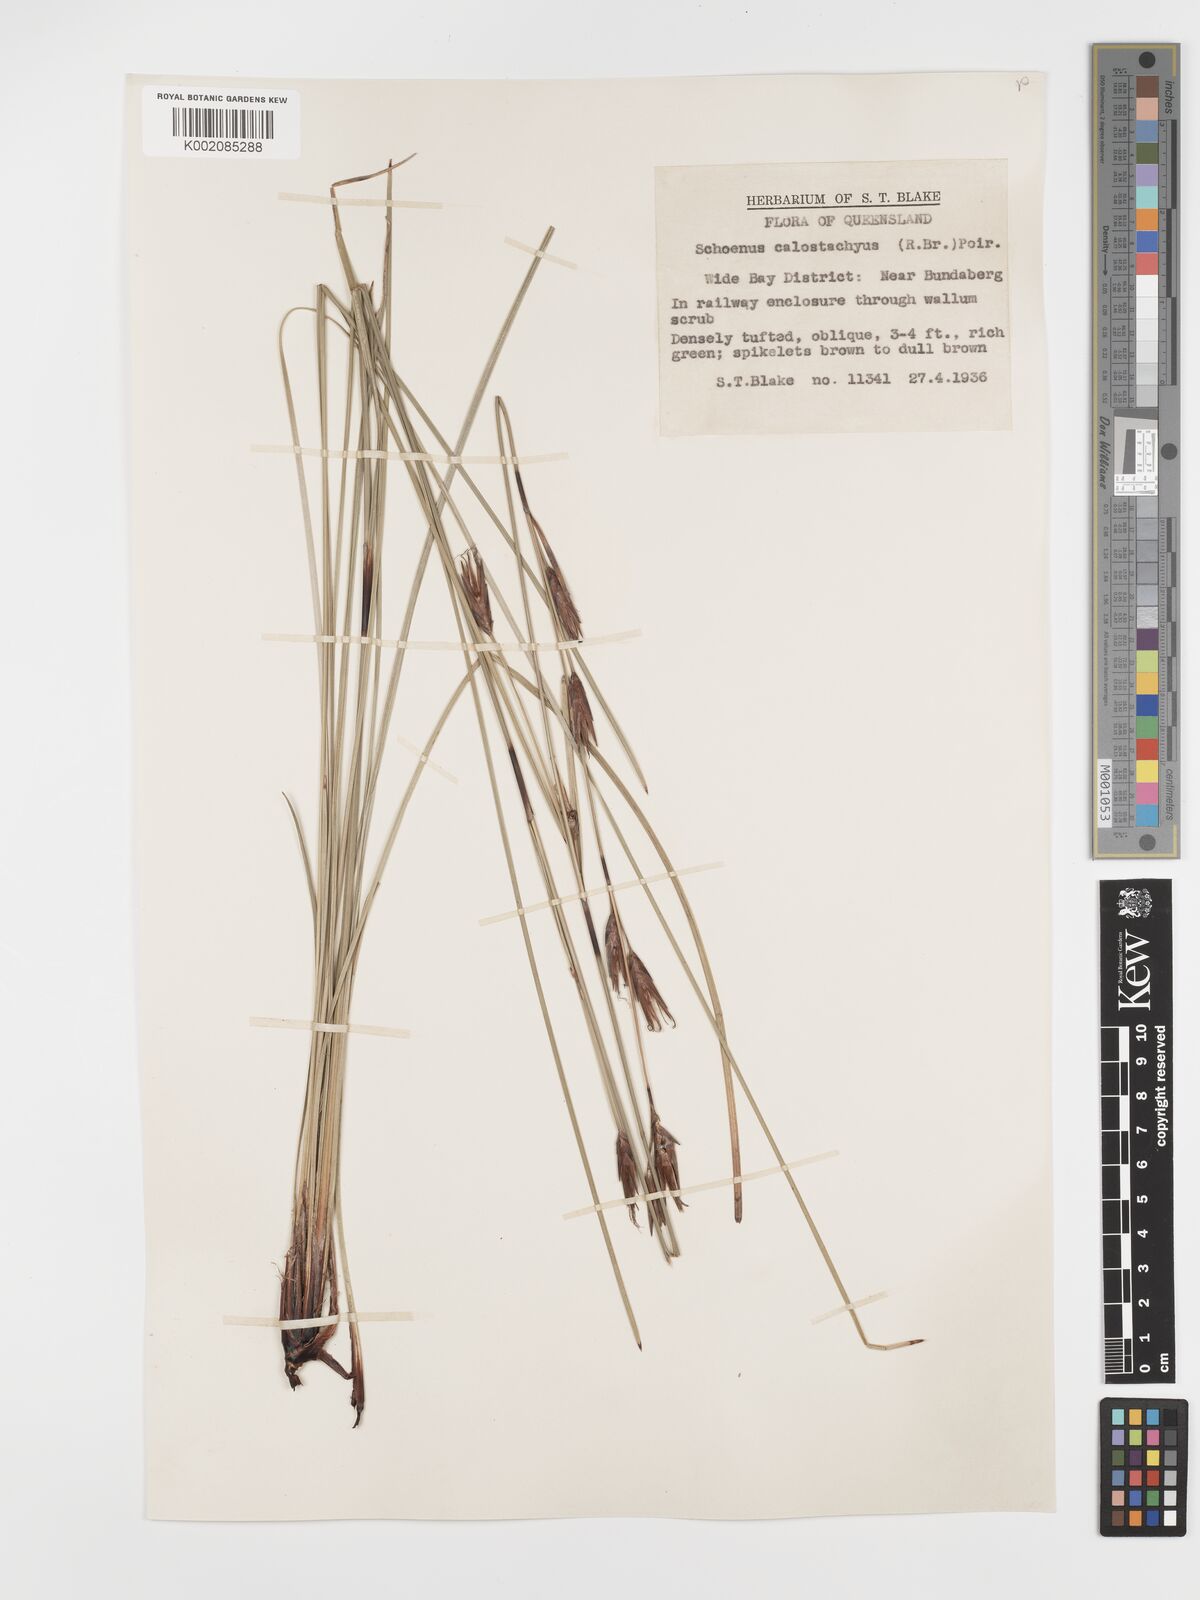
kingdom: Plantae
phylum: Tracheophyta
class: Liliopsida
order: Poales
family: Cyperaceae
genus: Schoenus
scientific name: Schoenus calostachyus
